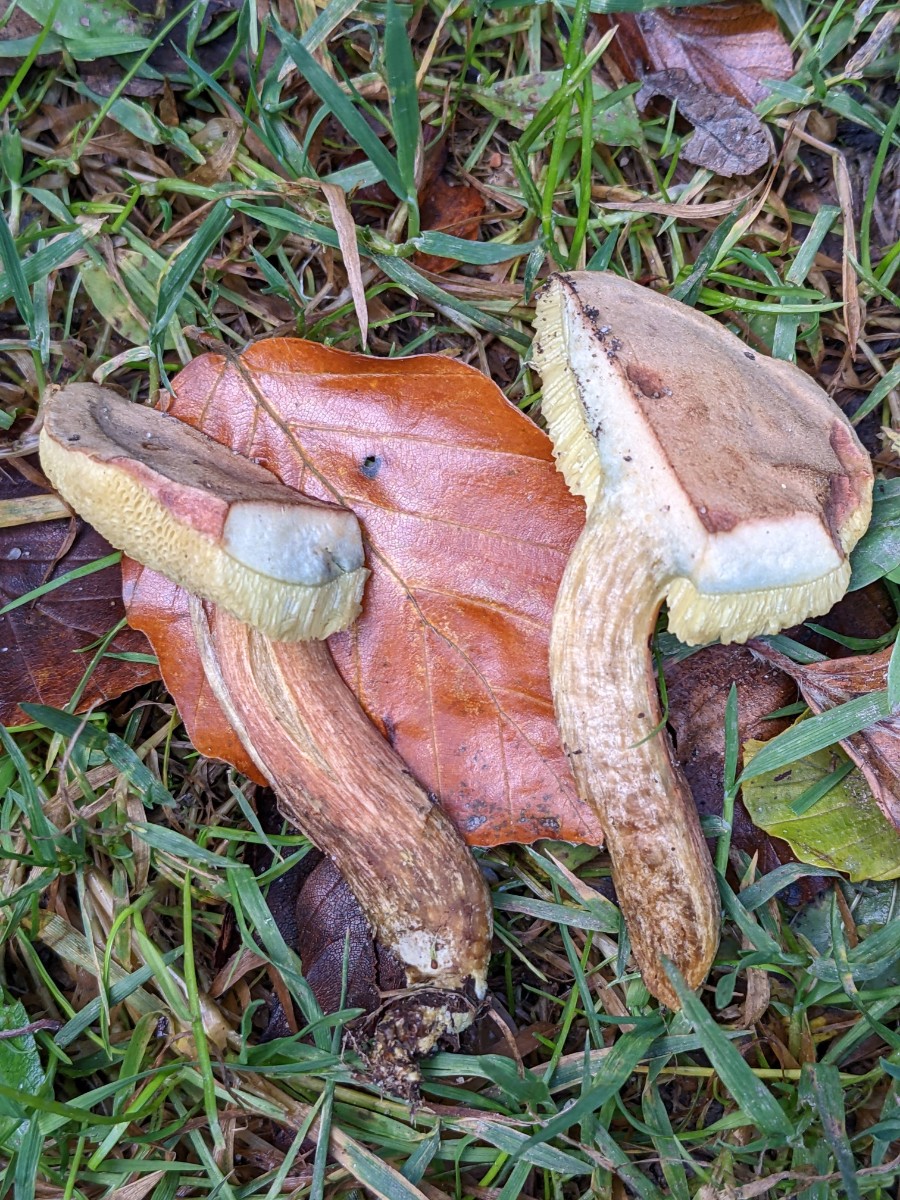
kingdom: Fungi
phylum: Basidiomycota
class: Agaricomycetes
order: Boletales
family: Boletaceae
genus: Hortiboletus
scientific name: Hortiboletus bubalinus
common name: aurora-rørhat
